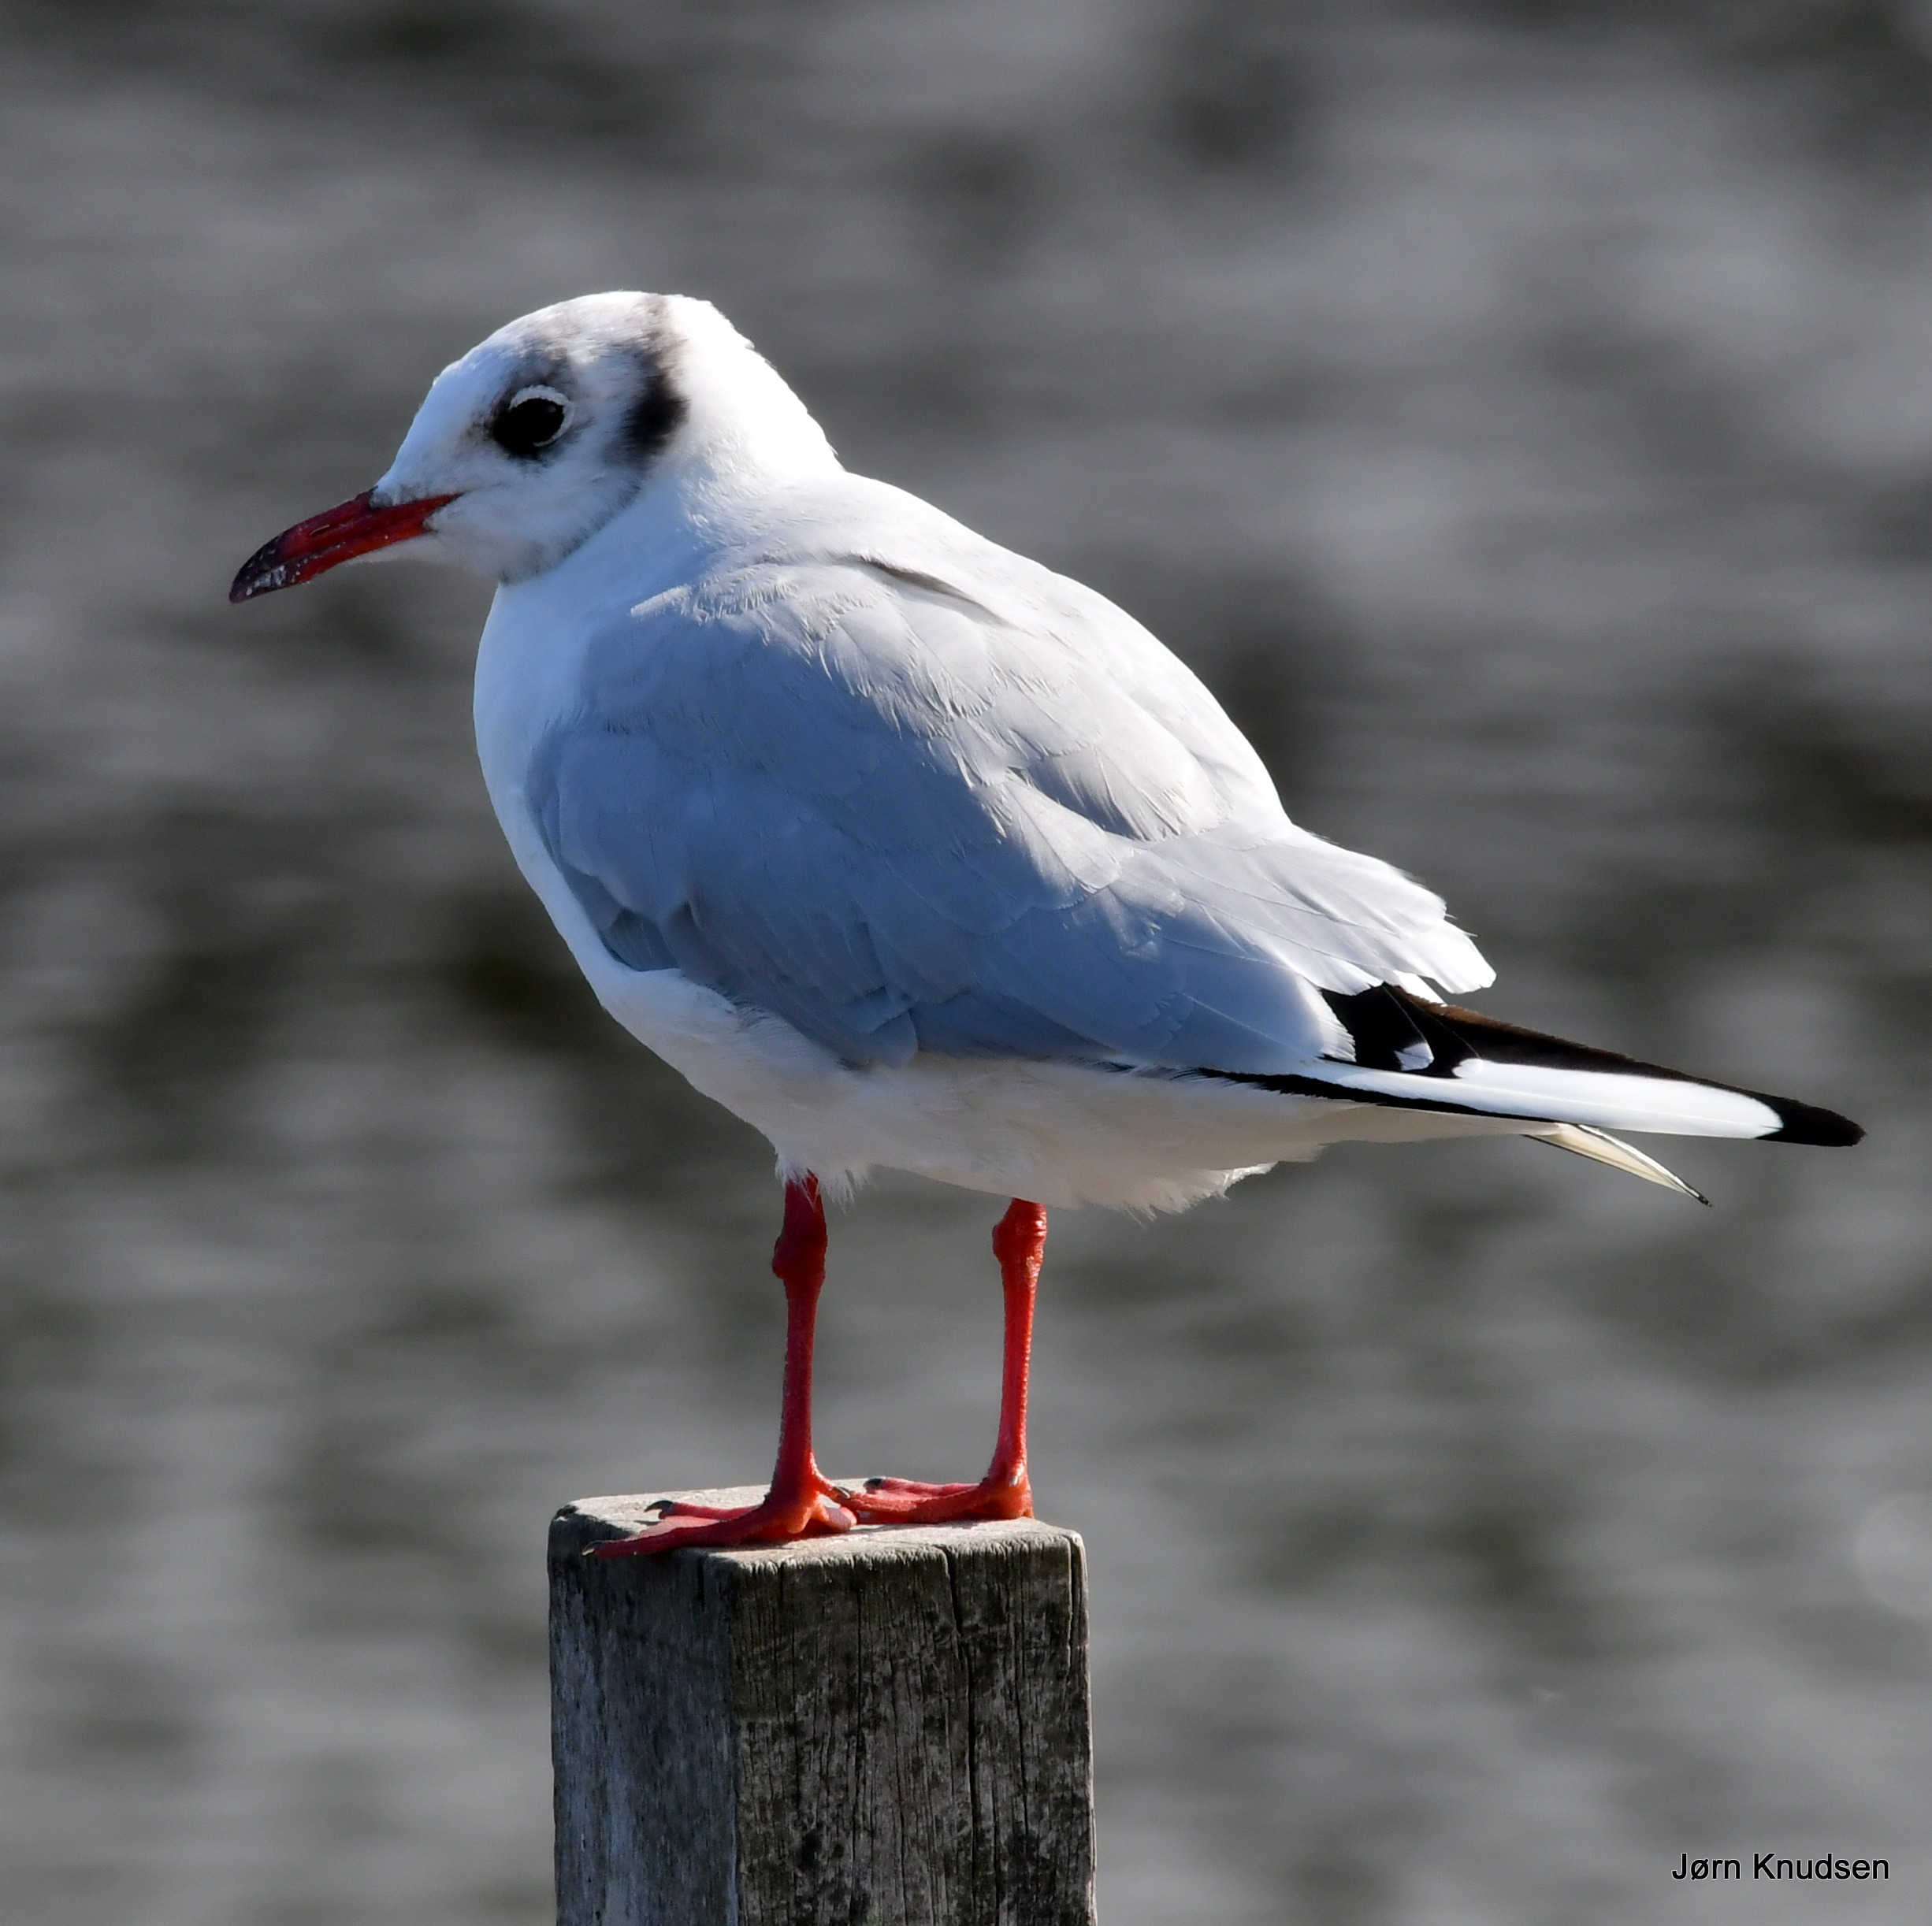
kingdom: Animalia
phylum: Chordata
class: Aves
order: Charadriiformes
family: Laridae
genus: Chroicocephalus
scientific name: Chroicocephalus ridibundus
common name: Hættemåge
